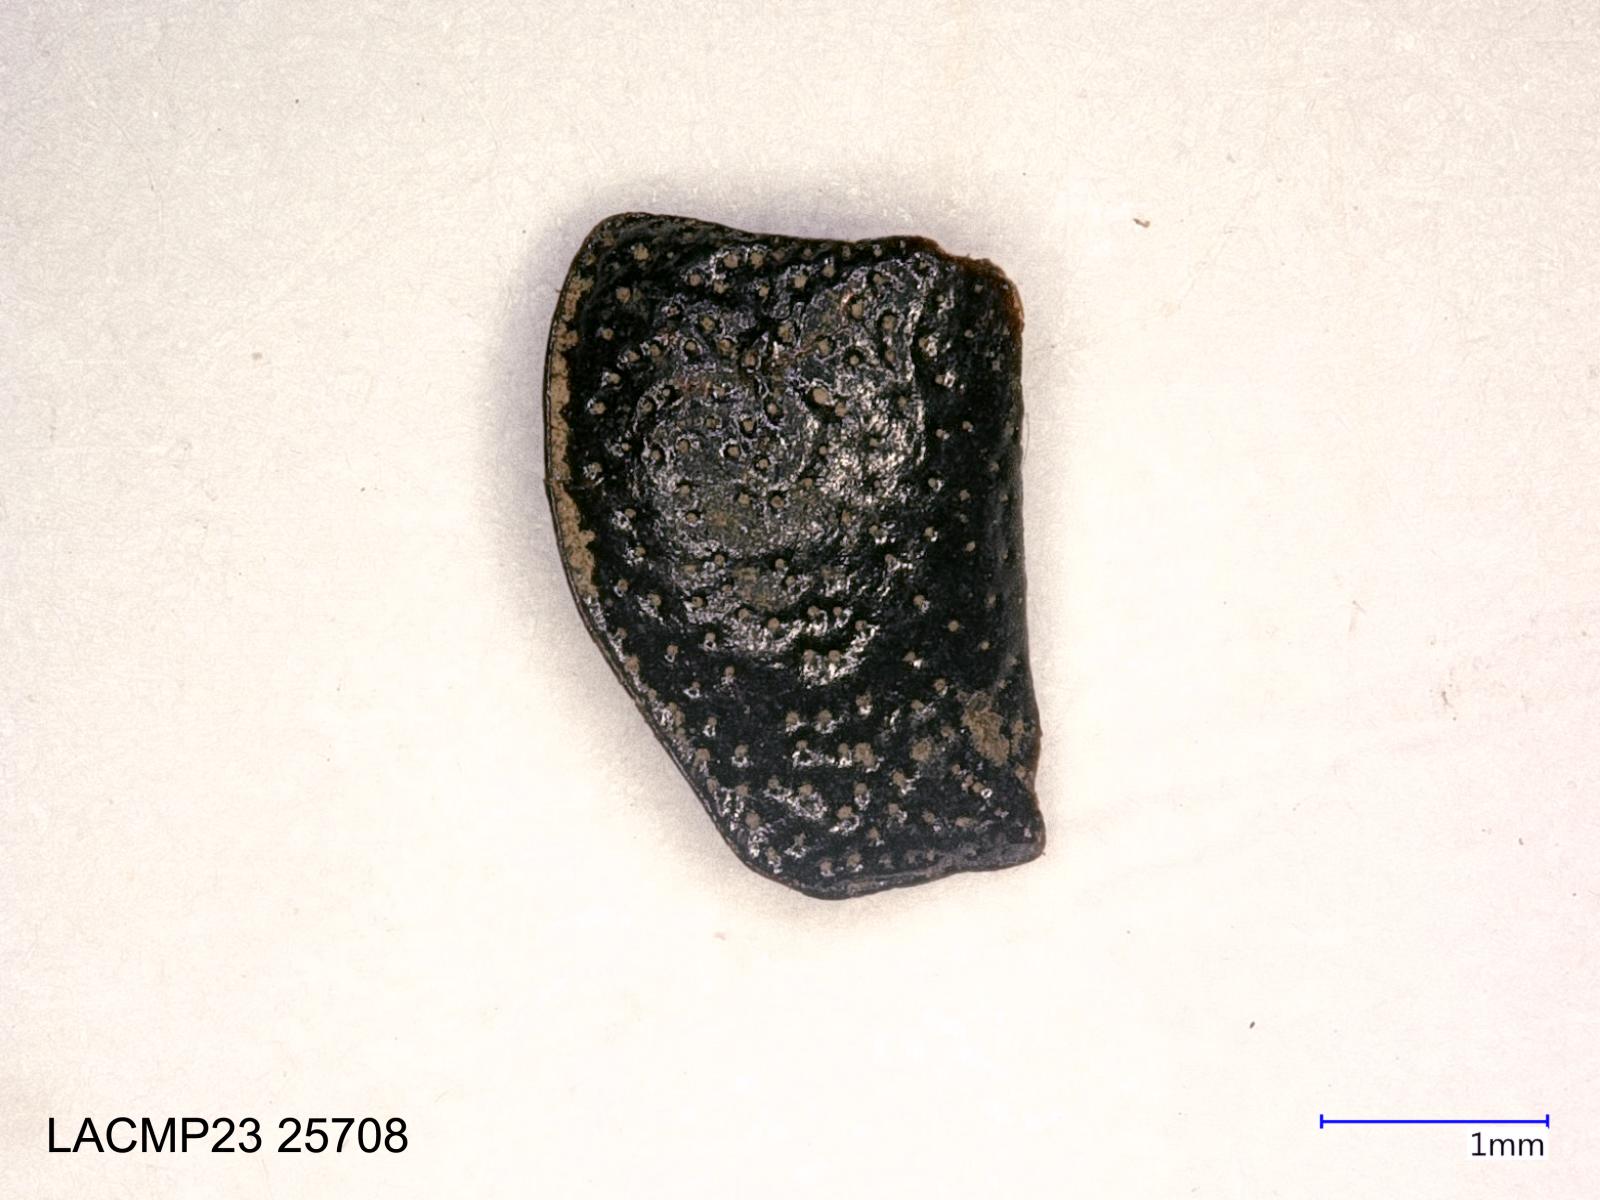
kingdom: Animalia
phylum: Arthropoda
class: Insecta
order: Coleoptera
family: Carabidae
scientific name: Carabidae
